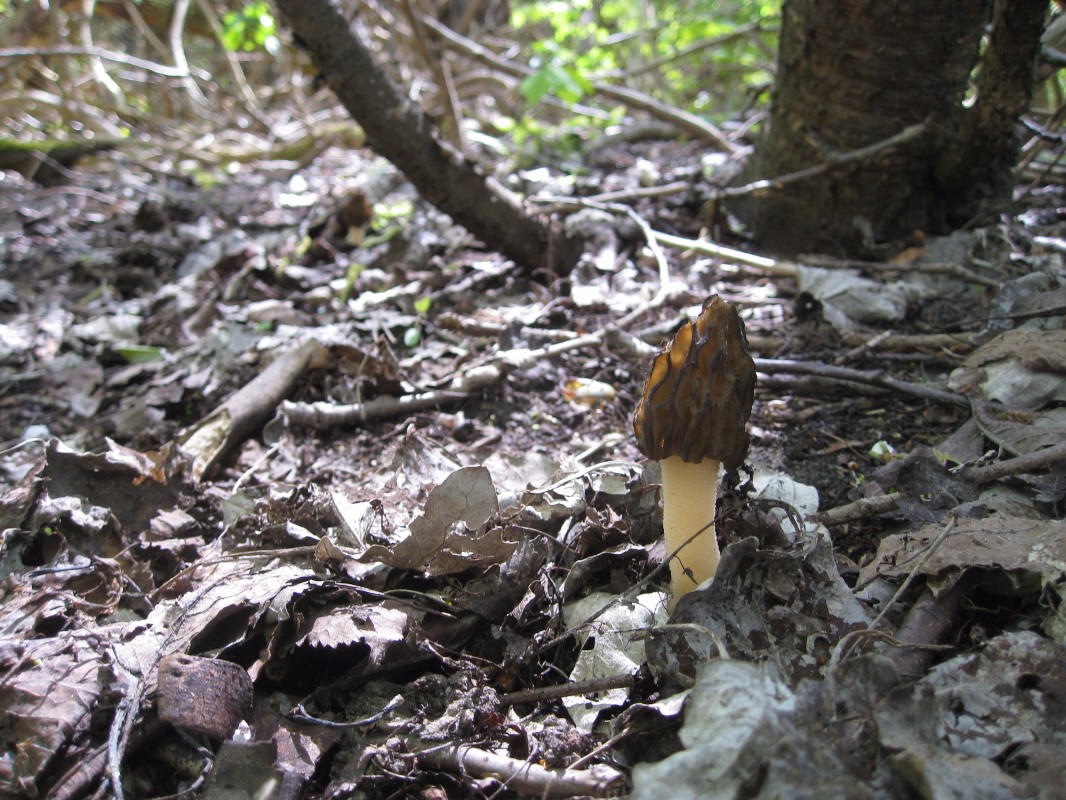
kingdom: Fungi
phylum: Ascomycota
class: Pezizomycetes
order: Pezizales
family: Morchellaceae
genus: Morchella
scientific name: Morchella semilibera
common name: hætte-morkel
